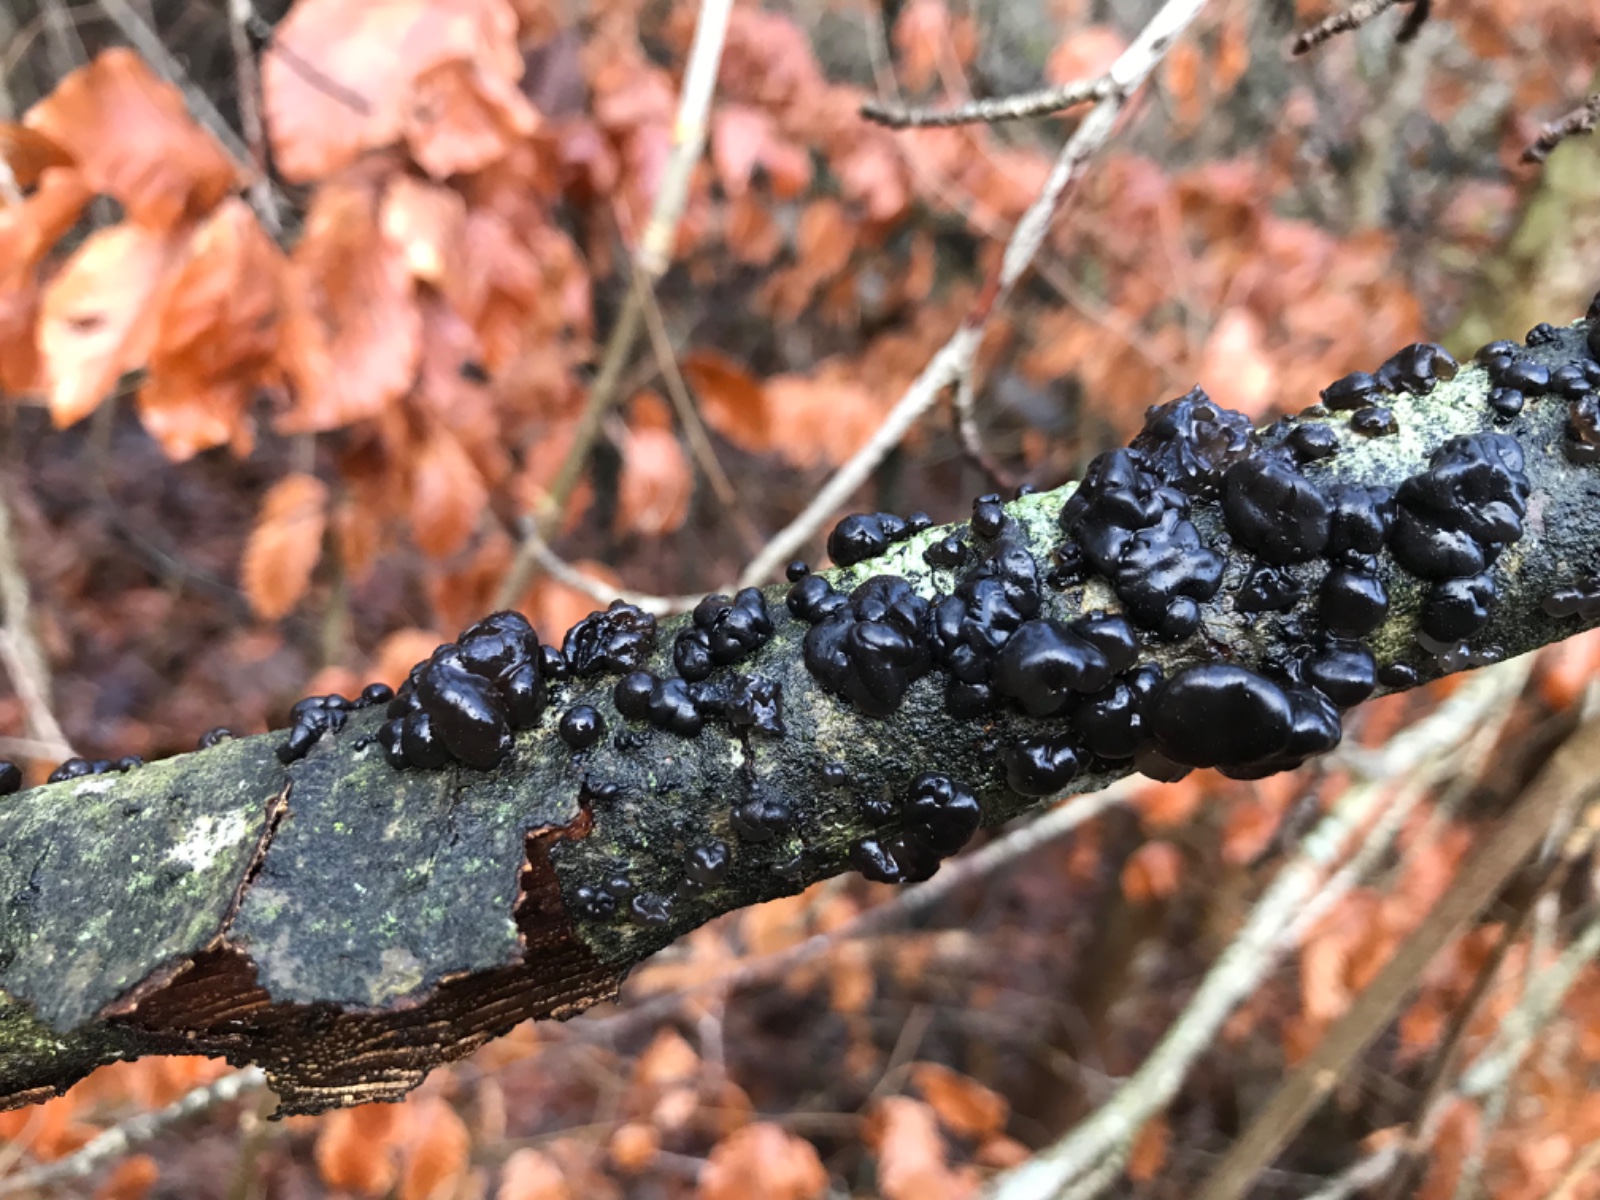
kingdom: Fungi
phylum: Basidiomycota
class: Agaricomycetes
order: Auriculariales
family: Auriculariaceae
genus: Exidia
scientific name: Exidia nigricans
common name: almindelig bævretop
